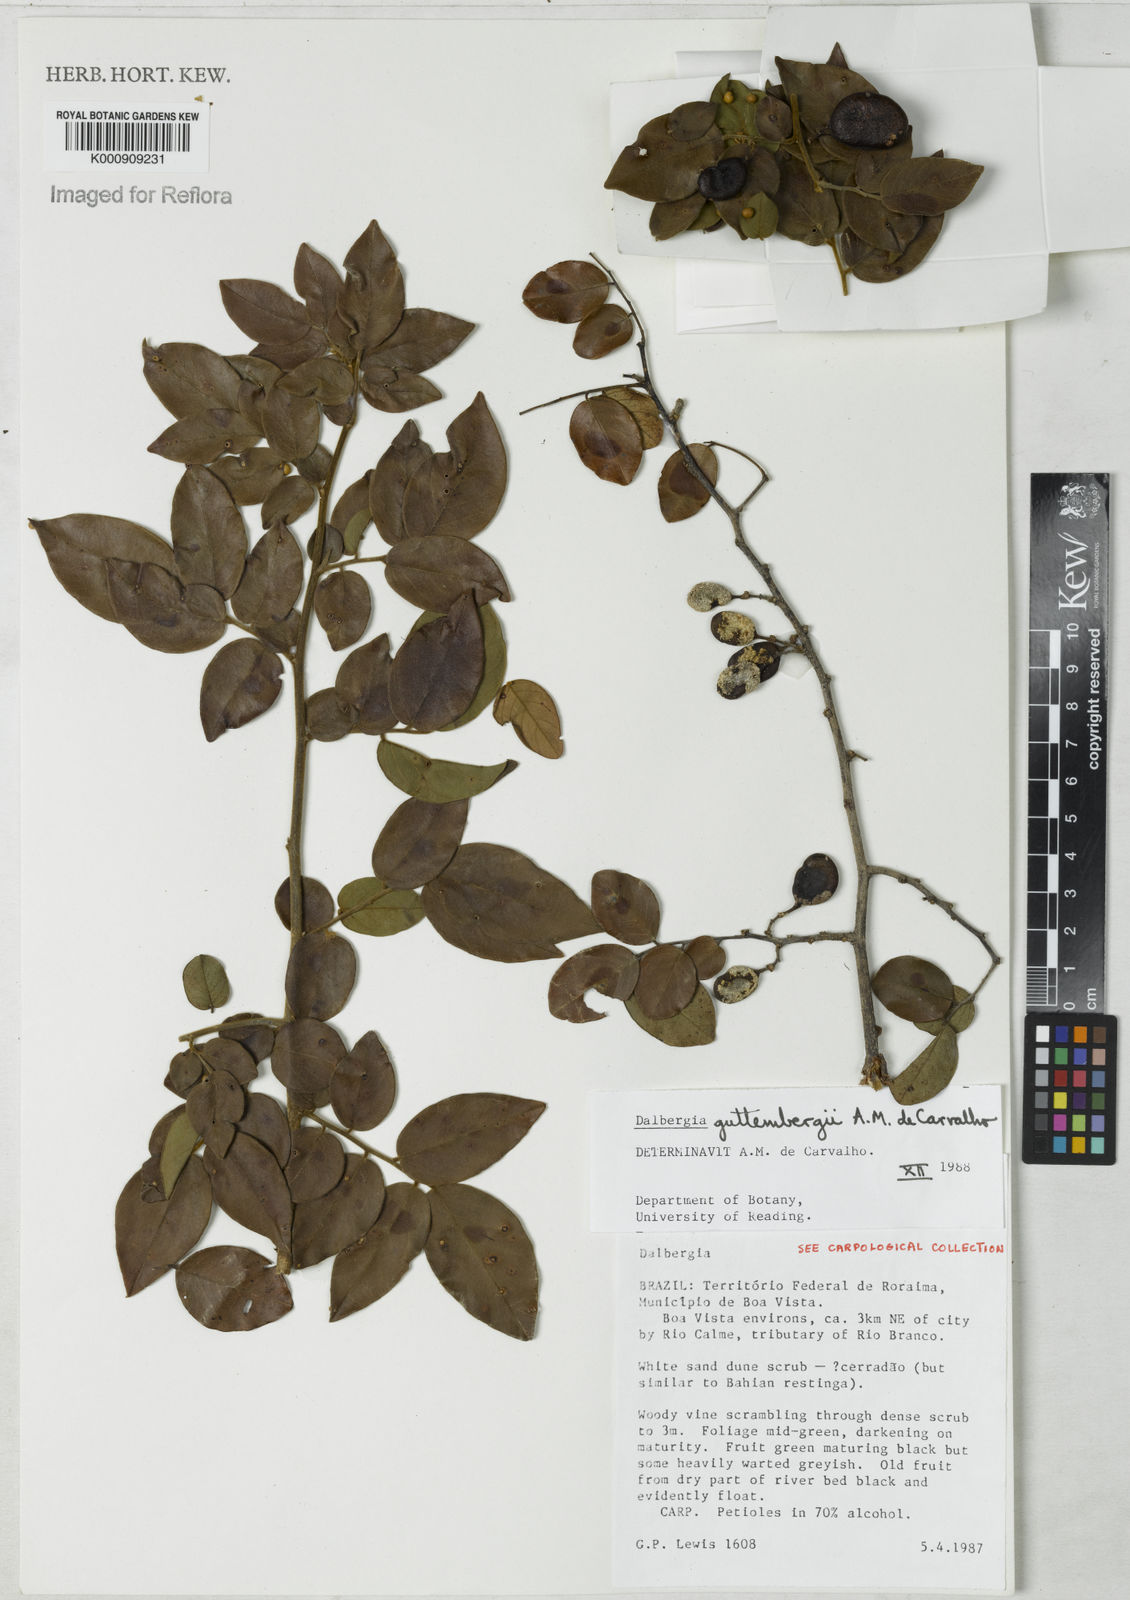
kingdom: Plantae
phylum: Tracheophyta
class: Magnoliopsida
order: Fabales
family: Fabaceae
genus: Dalbergia
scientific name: Dalbergia guttembergii
